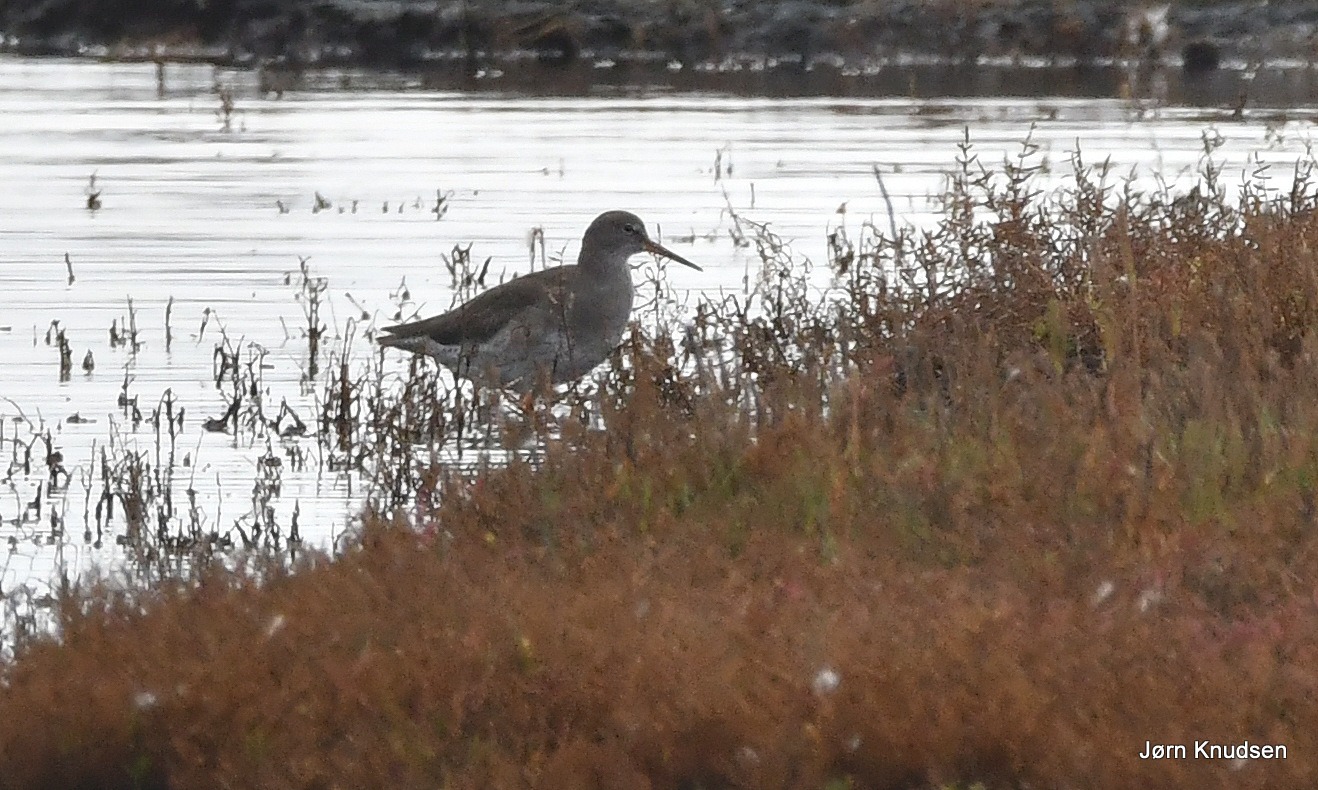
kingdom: Animalia
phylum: Chordata
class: Aves
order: Charadriiformes
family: Scolopacidae
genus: Tringa
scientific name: Tringa totanus
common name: Rødben
